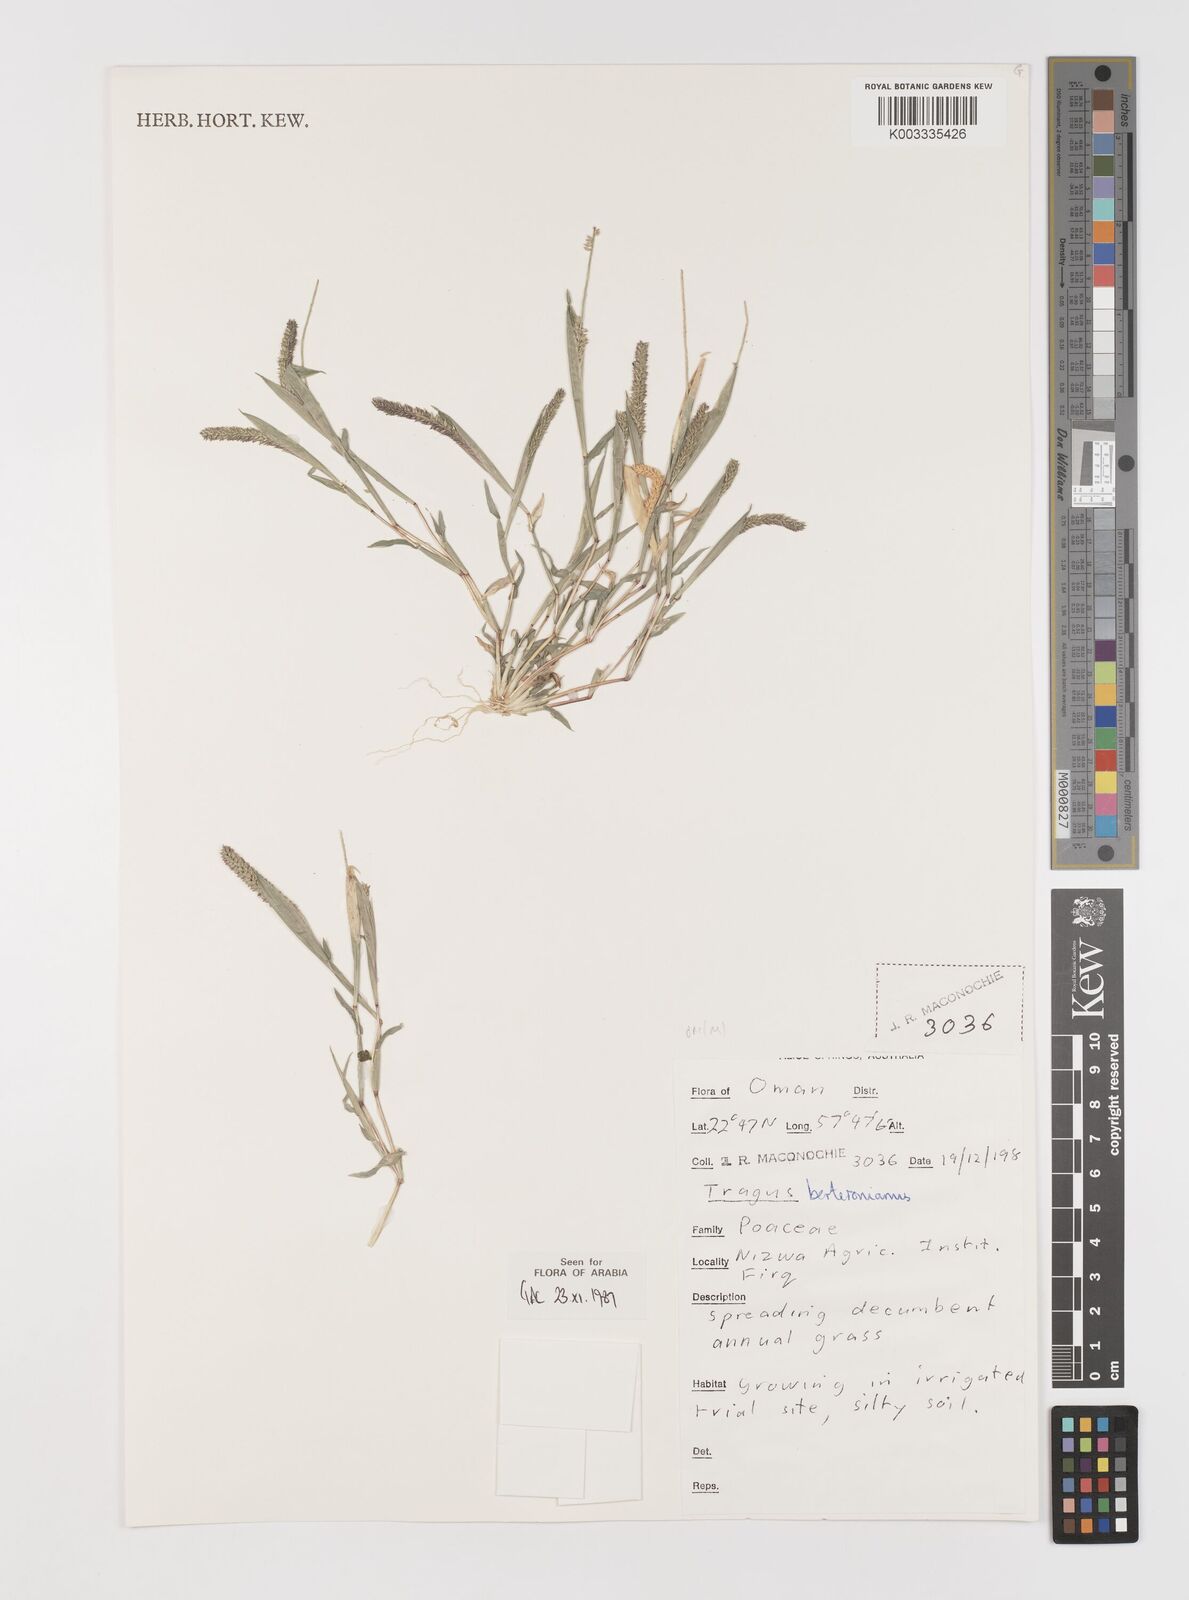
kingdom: Plantae
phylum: Tracheophyta
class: Liliopsida
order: Poales
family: Poaceae
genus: Tragus
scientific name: Tragus berteronianus
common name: African bur-grass
